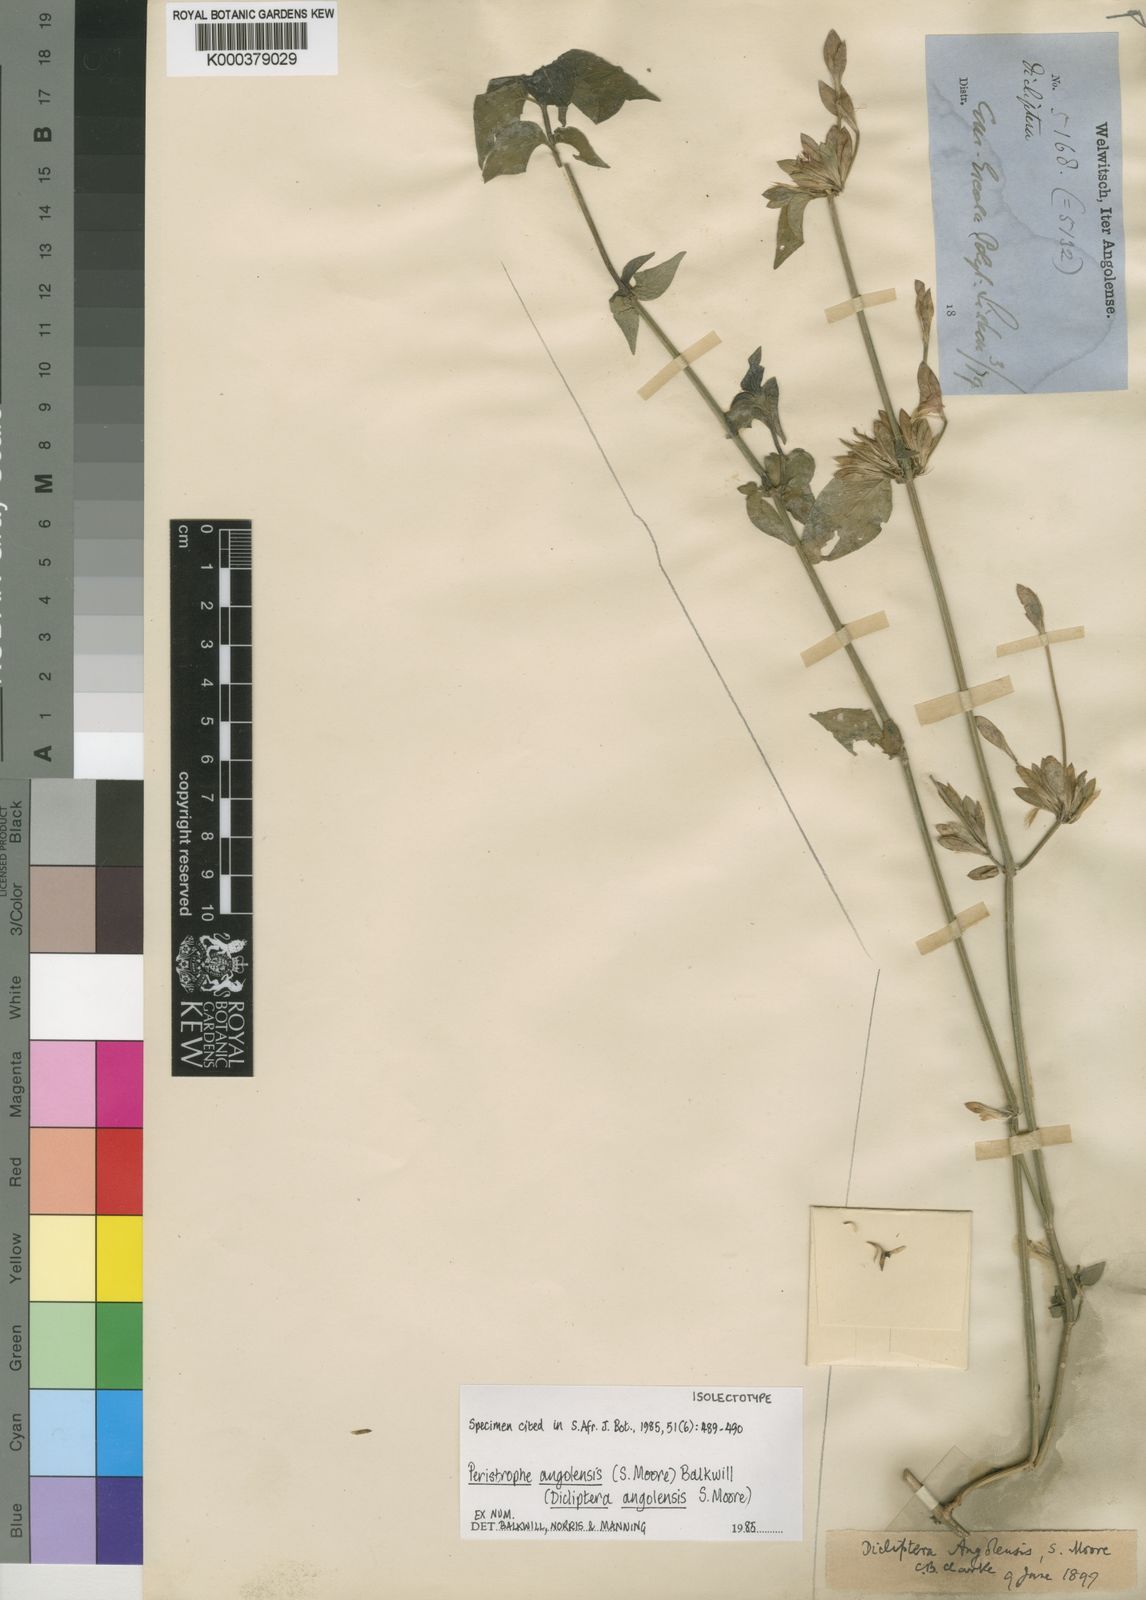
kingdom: Plantae
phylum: Tracheophyta
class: Magnoliopsida
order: Lamiales
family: Acanthaceae
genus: Dicliptera
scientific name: Dicliptera
